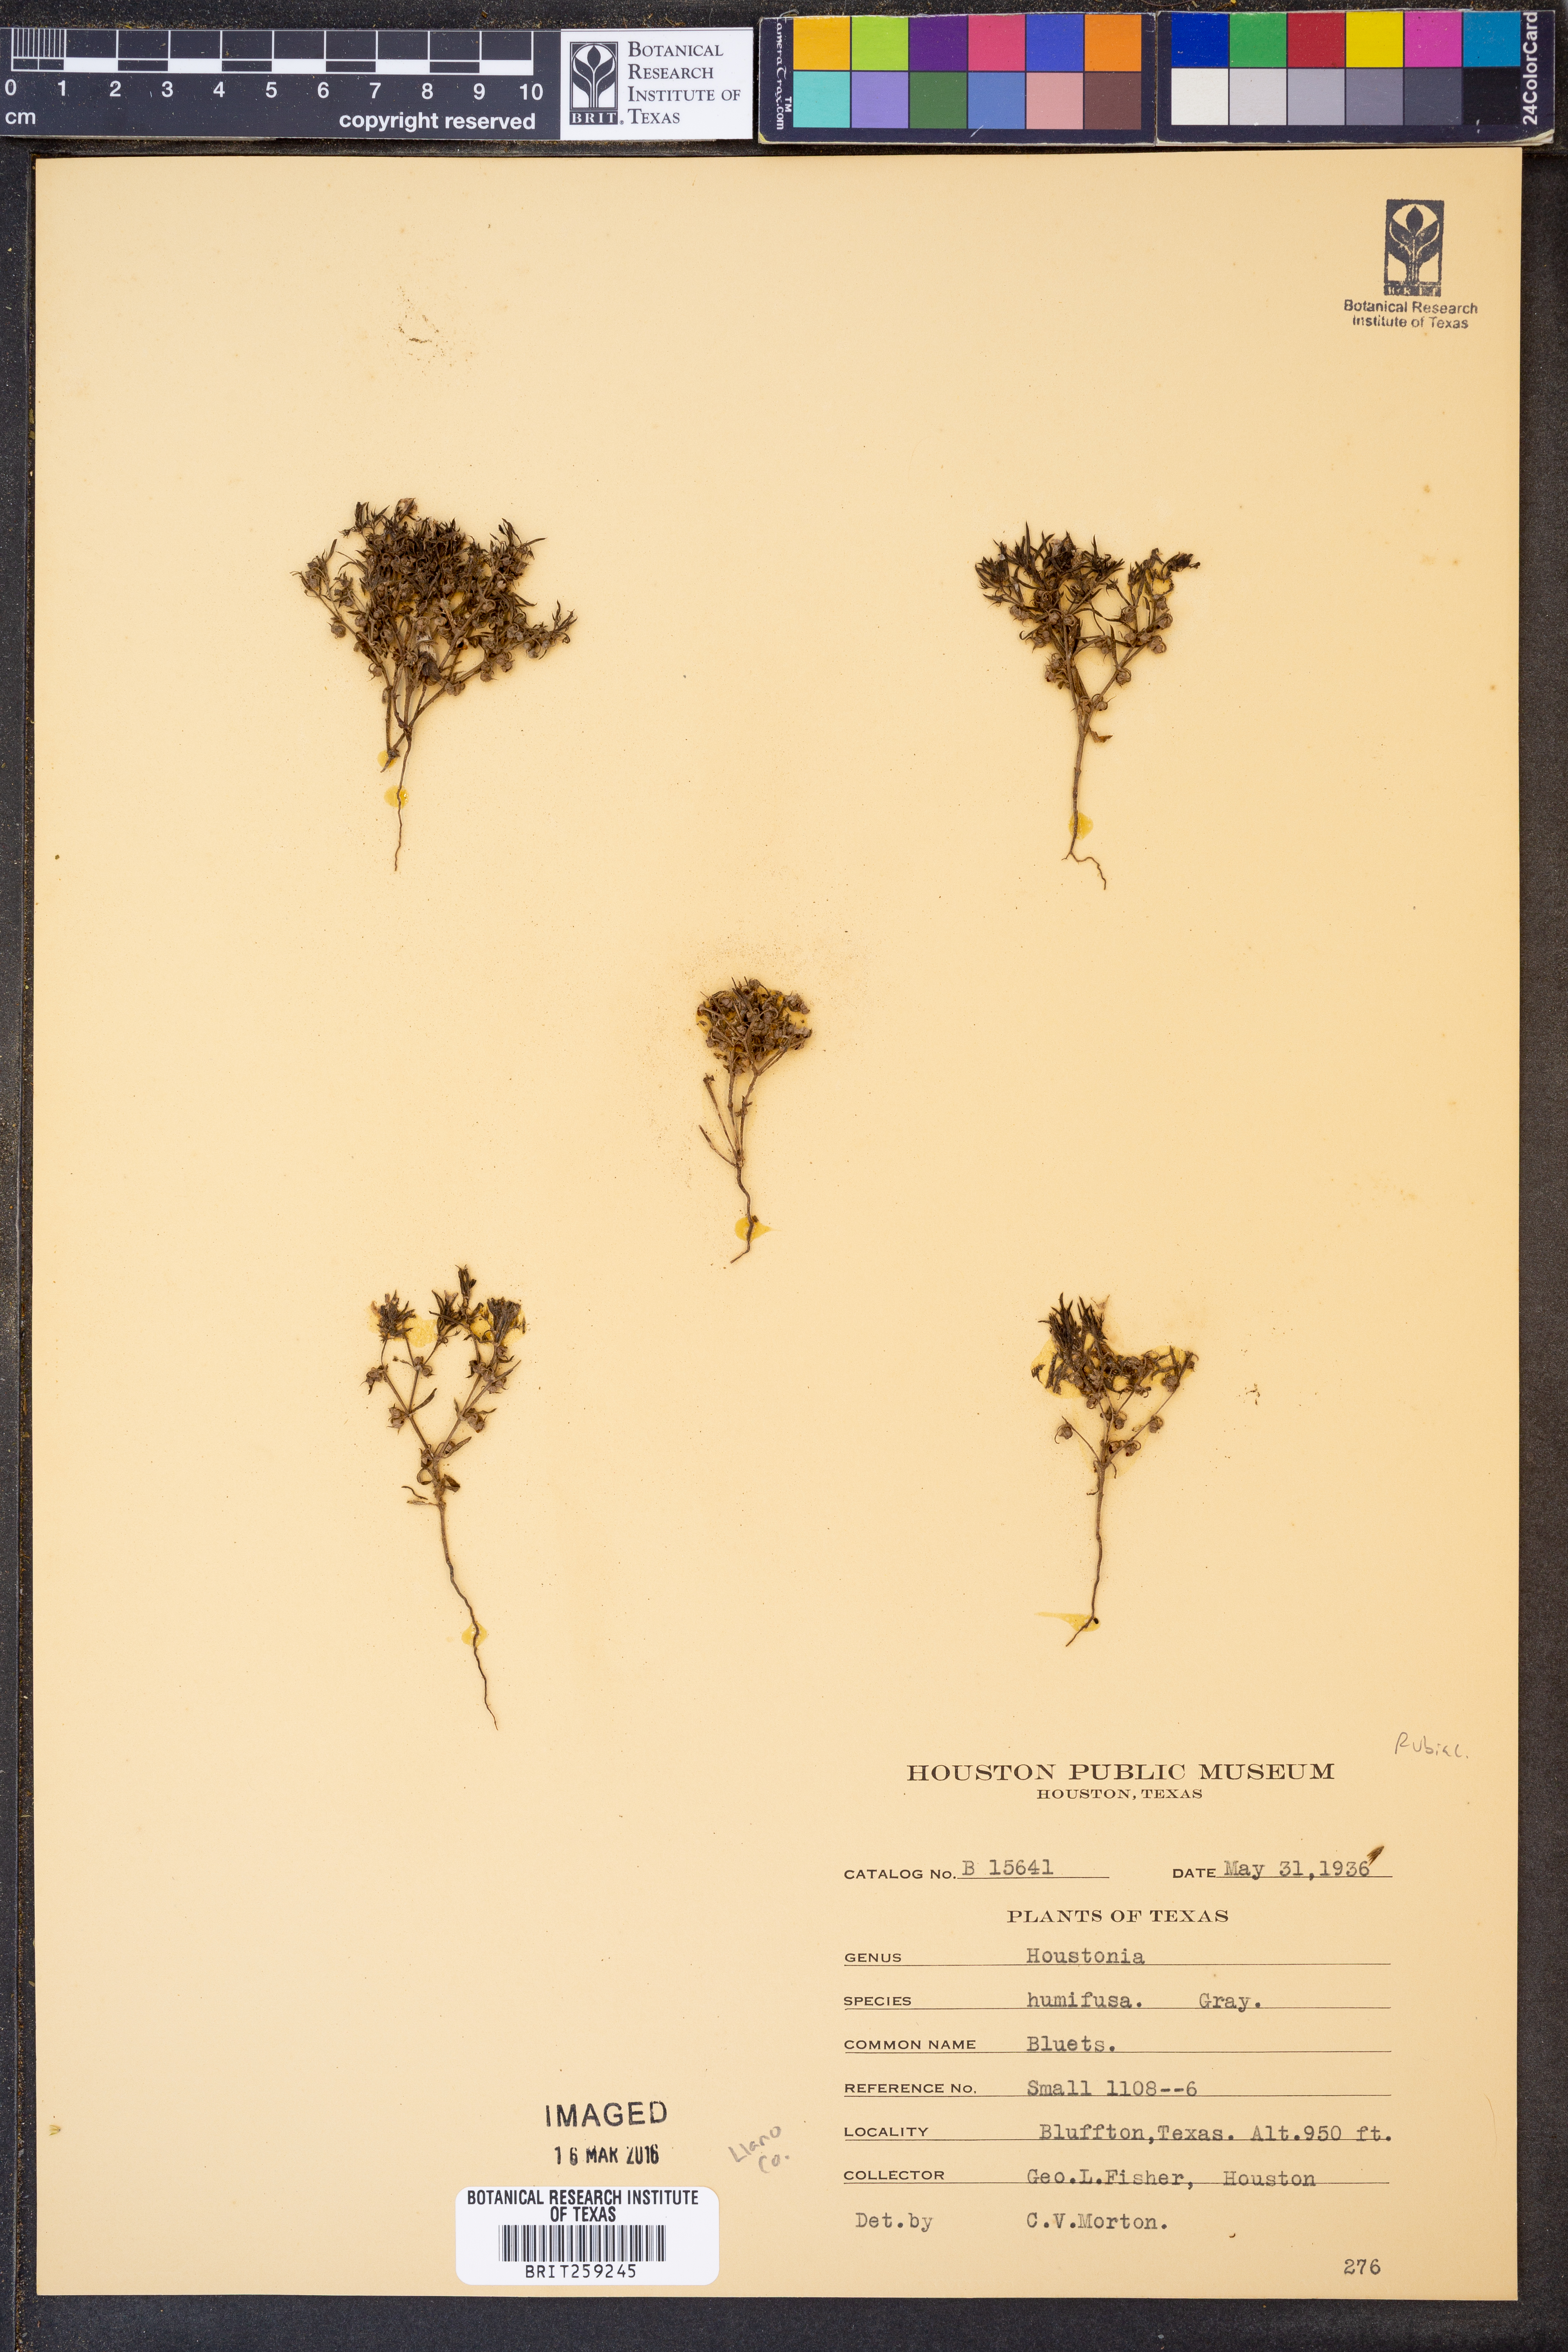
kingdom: Plantae
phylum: Tracheophyta
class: Magnoliopsida
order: Gentianales
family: Rubiaceae
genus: Houstonia
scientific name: Houstonia humifusa
